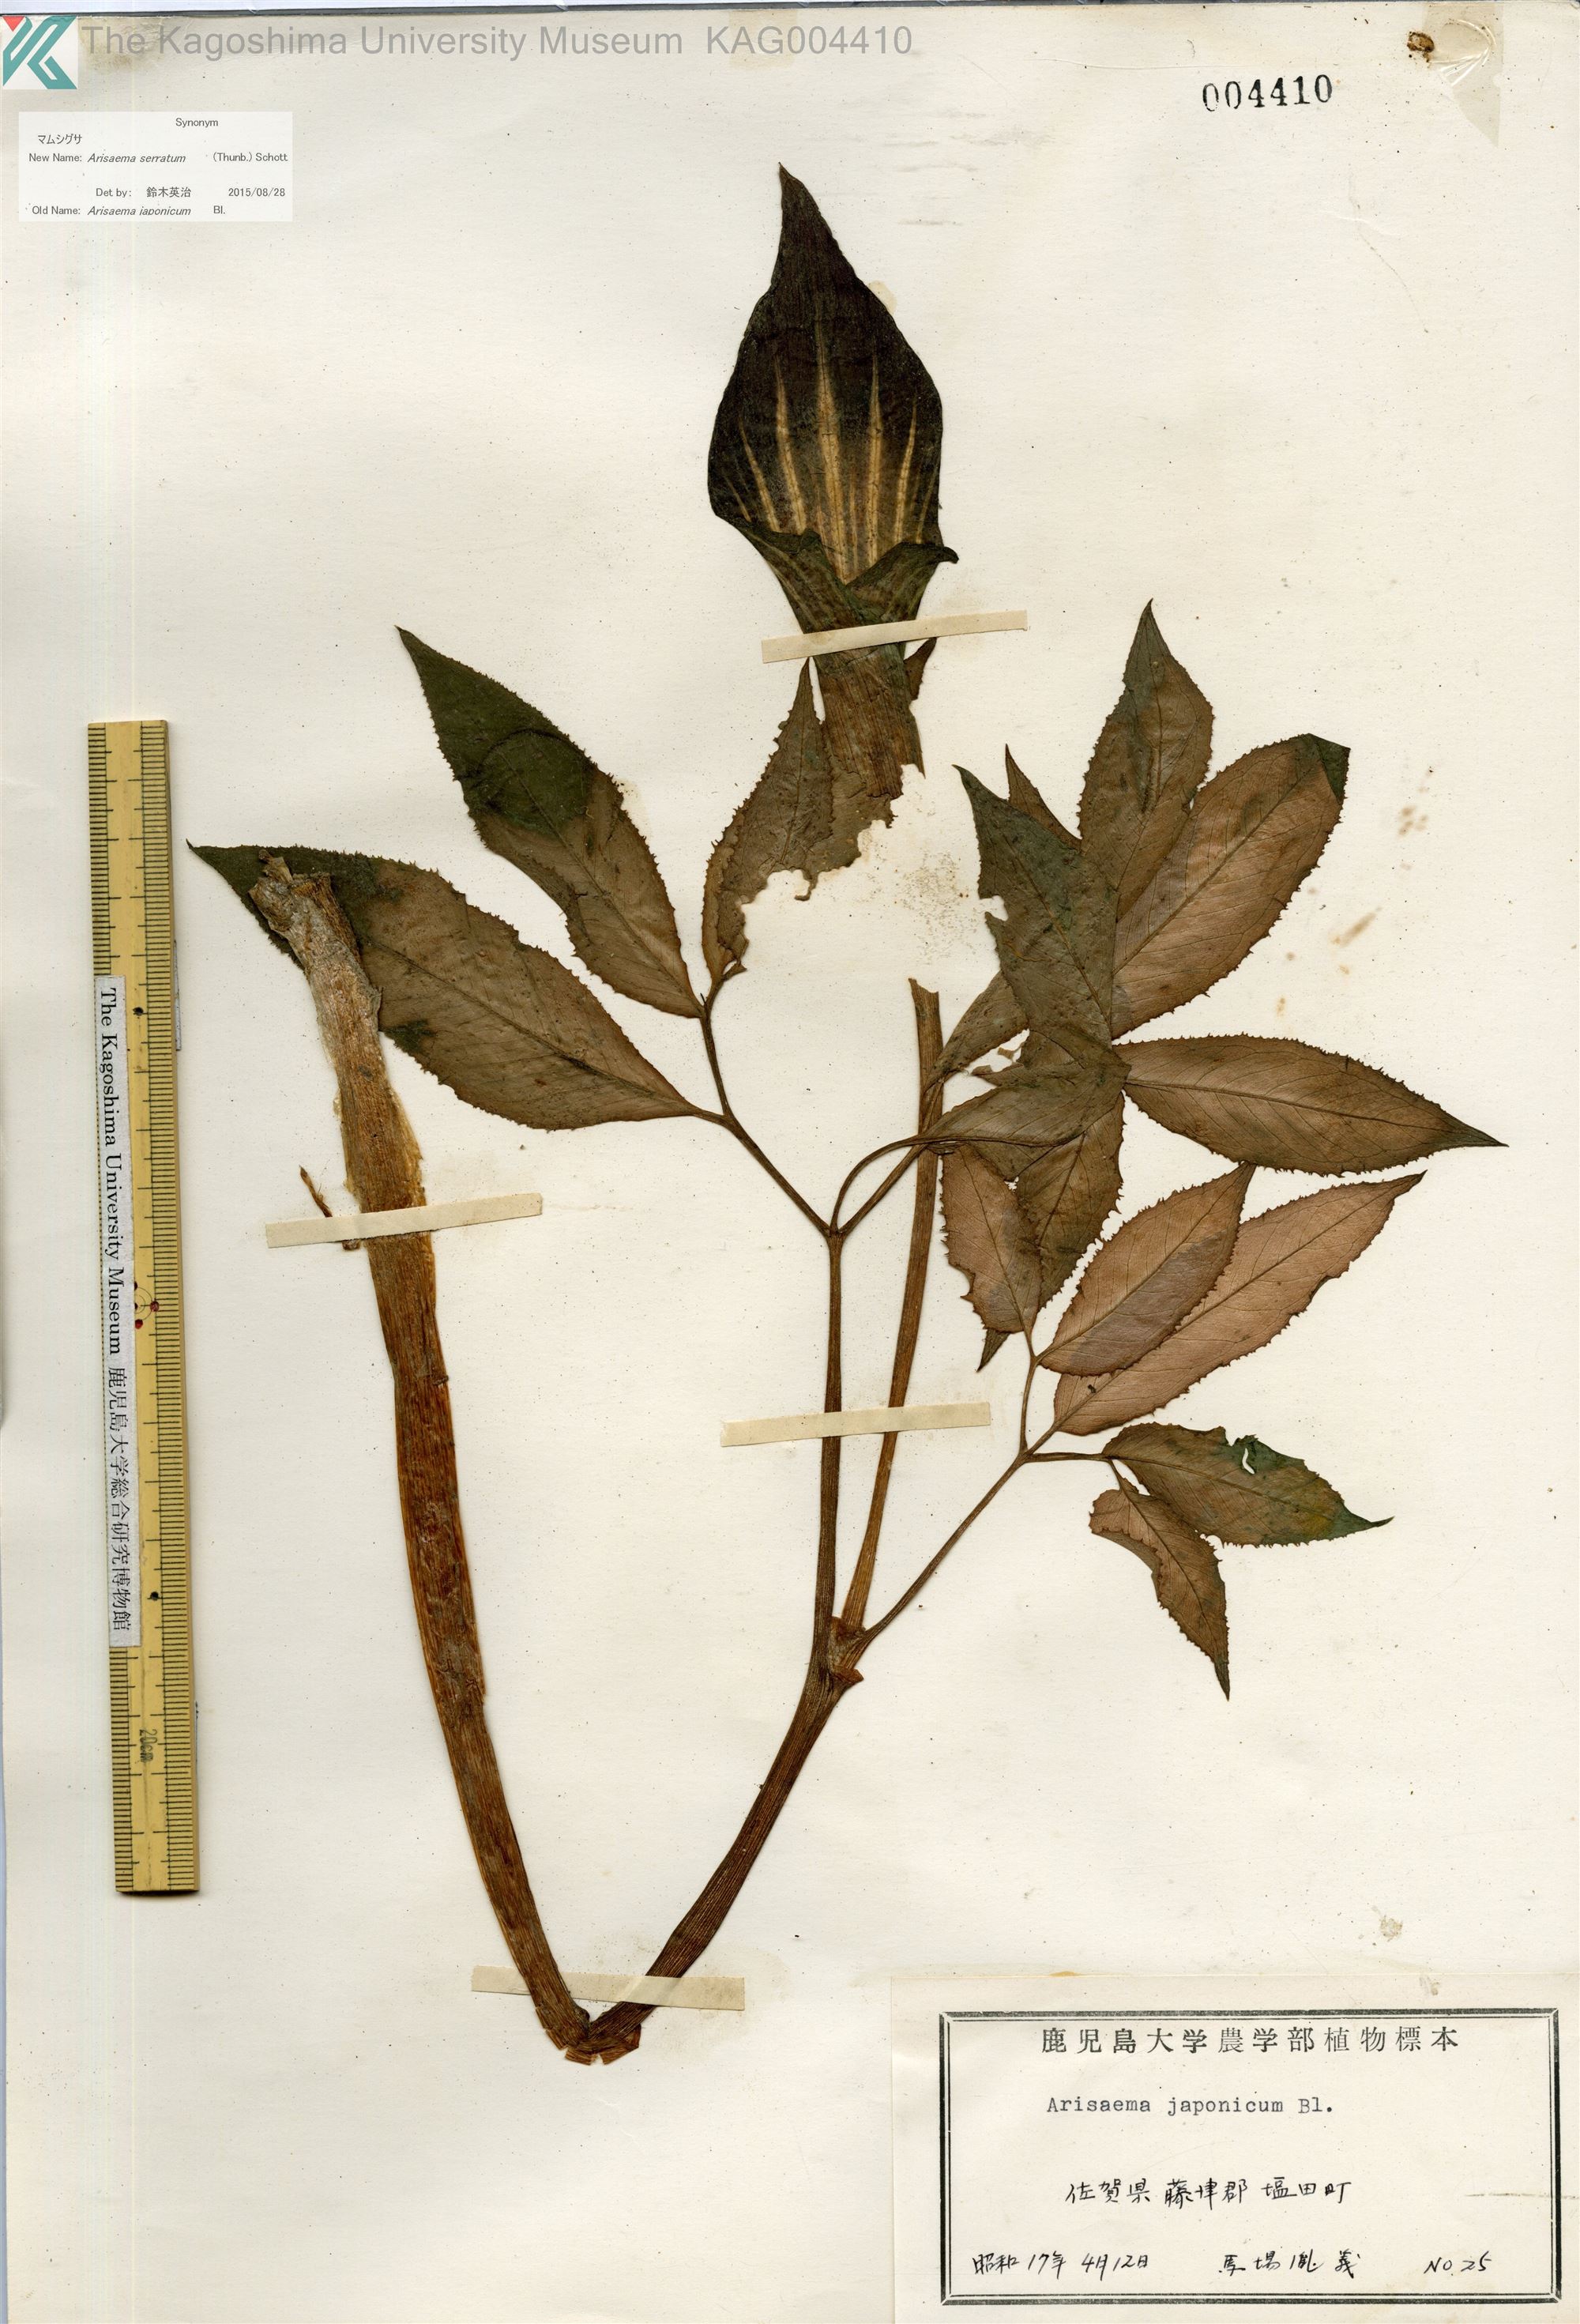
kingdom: Plantae
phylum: Tracheophyta
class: Liliopsida
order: Alismatales
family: Araceae
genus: Arisaema
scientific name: Arisaema serratum
